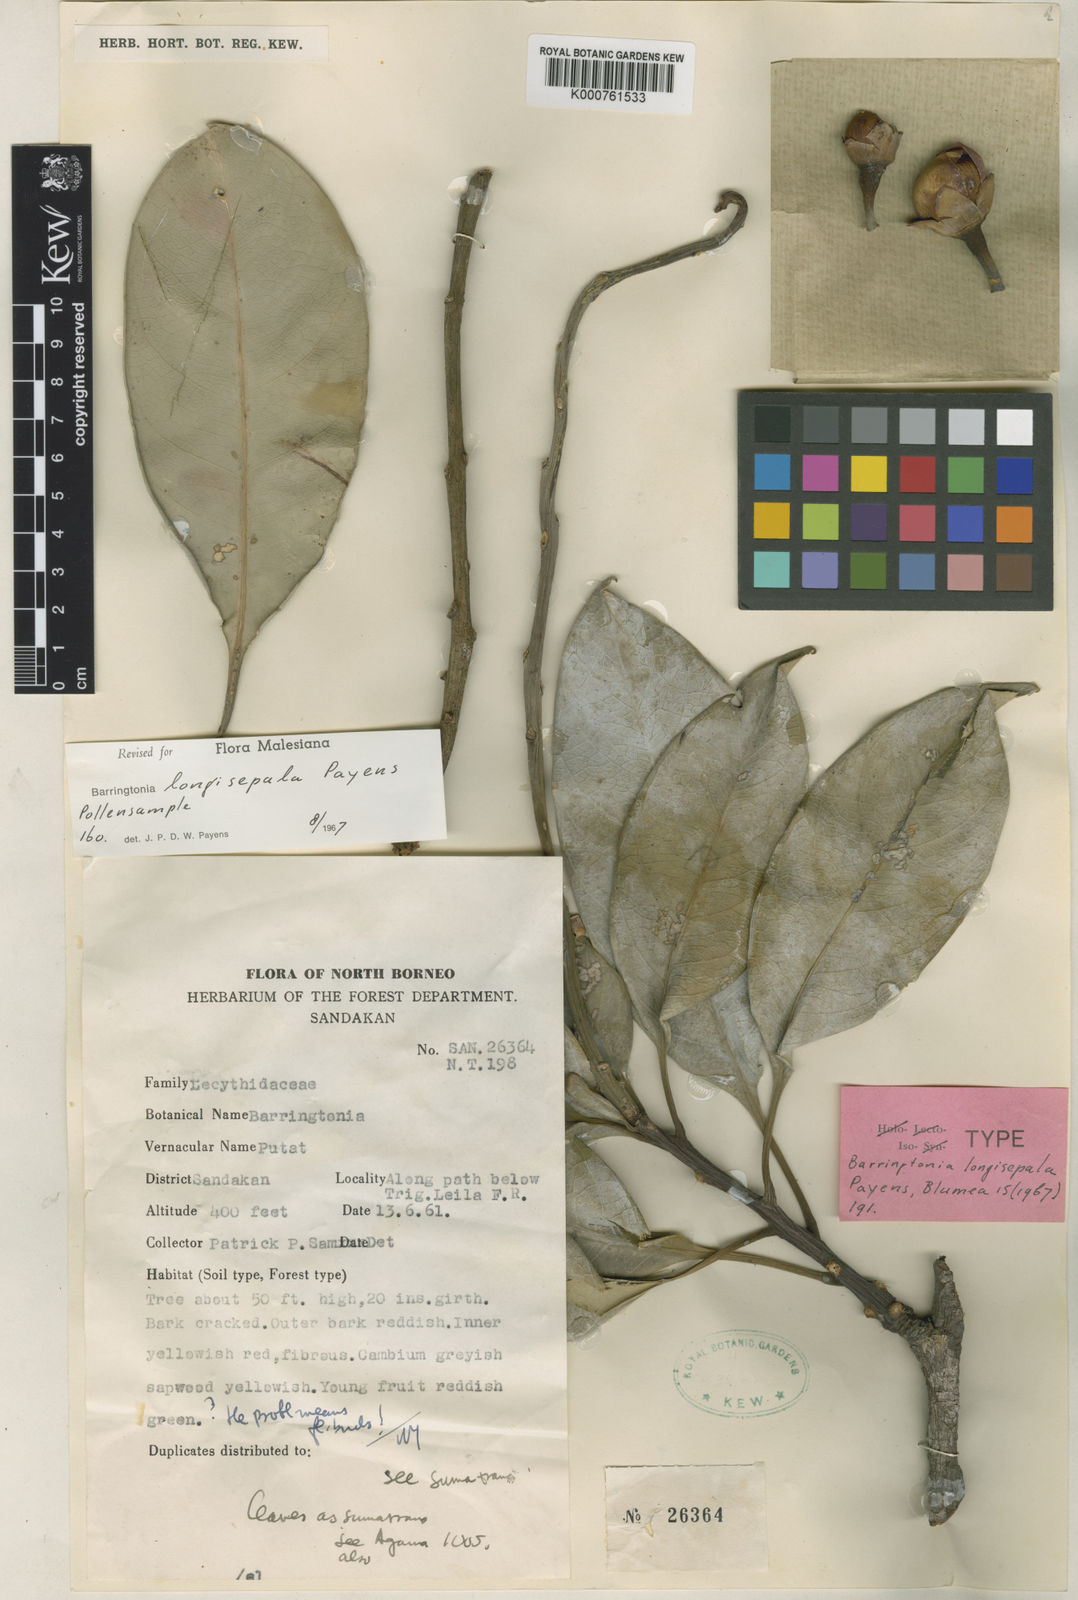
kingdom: Plantae
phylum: Tracheophyta
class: Magnoliopsida
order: Ericales
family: Lecythidaceae
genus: Barringtonia
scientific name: Barringtonia longisepala
